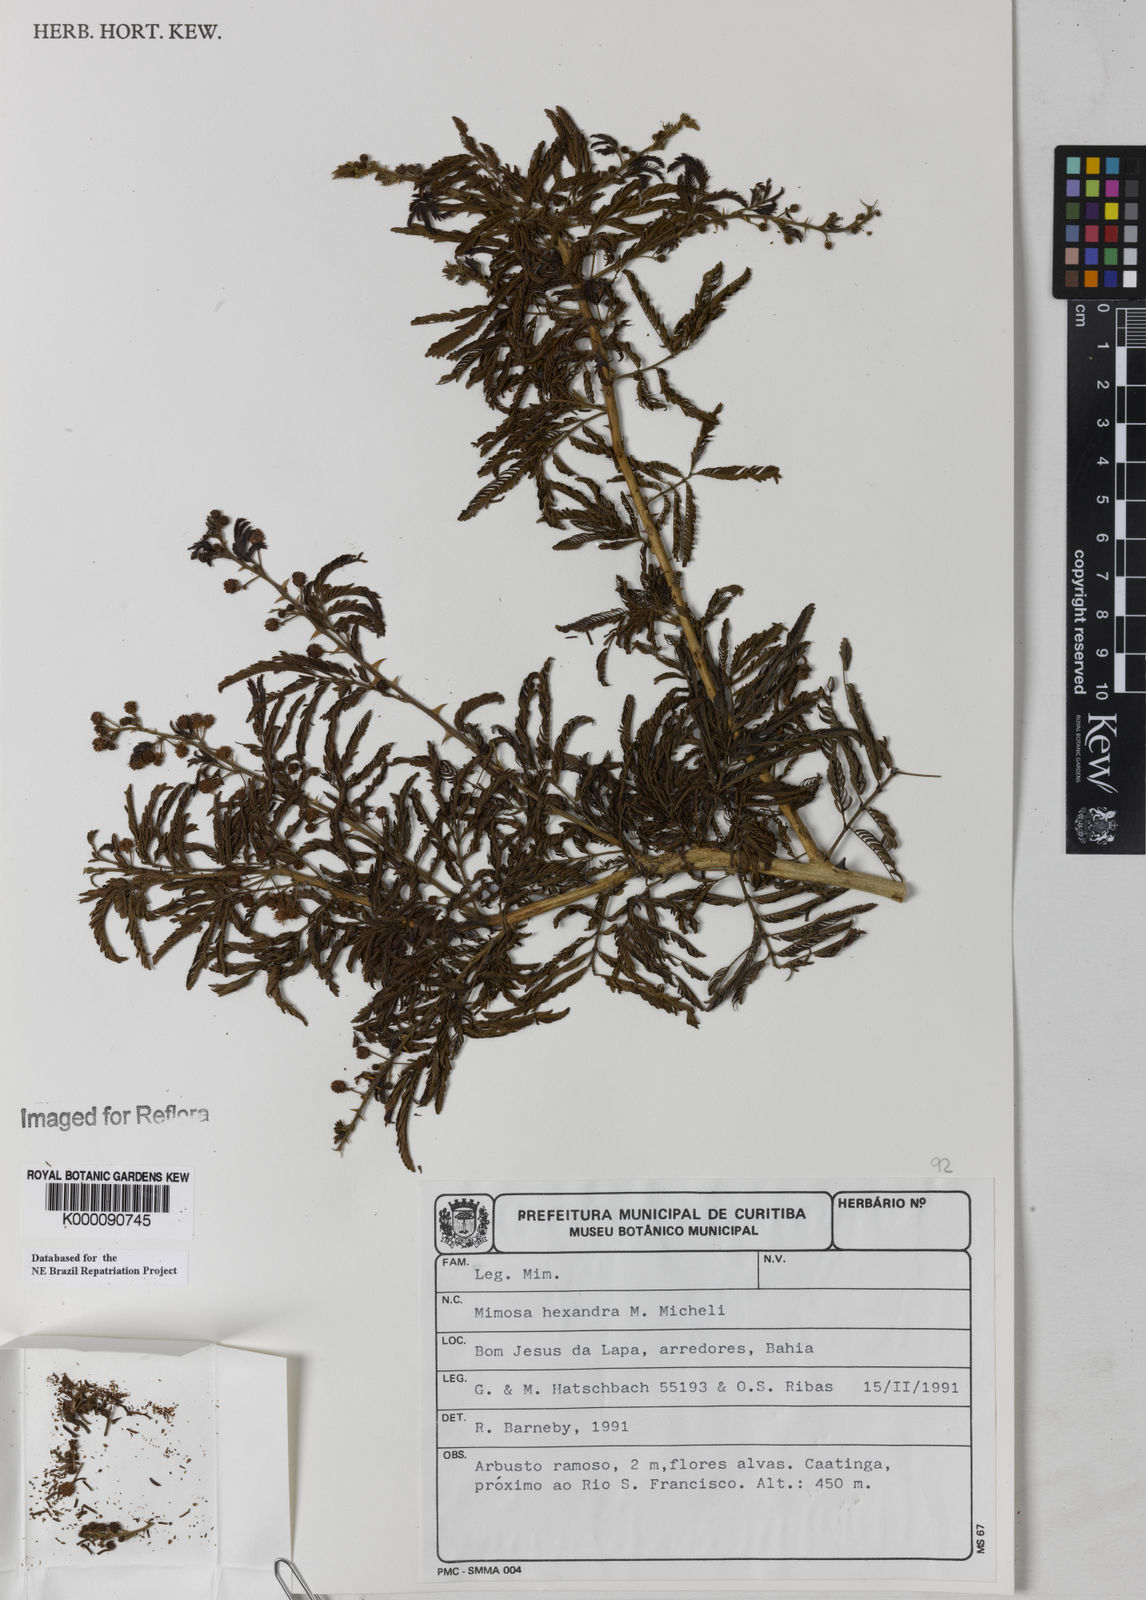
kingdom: Plantae
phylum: Tracheophyta
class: Magnoliopsida
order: Fabales
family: Fabaceae
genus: Mimosa
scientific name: Mimosa hexandra
